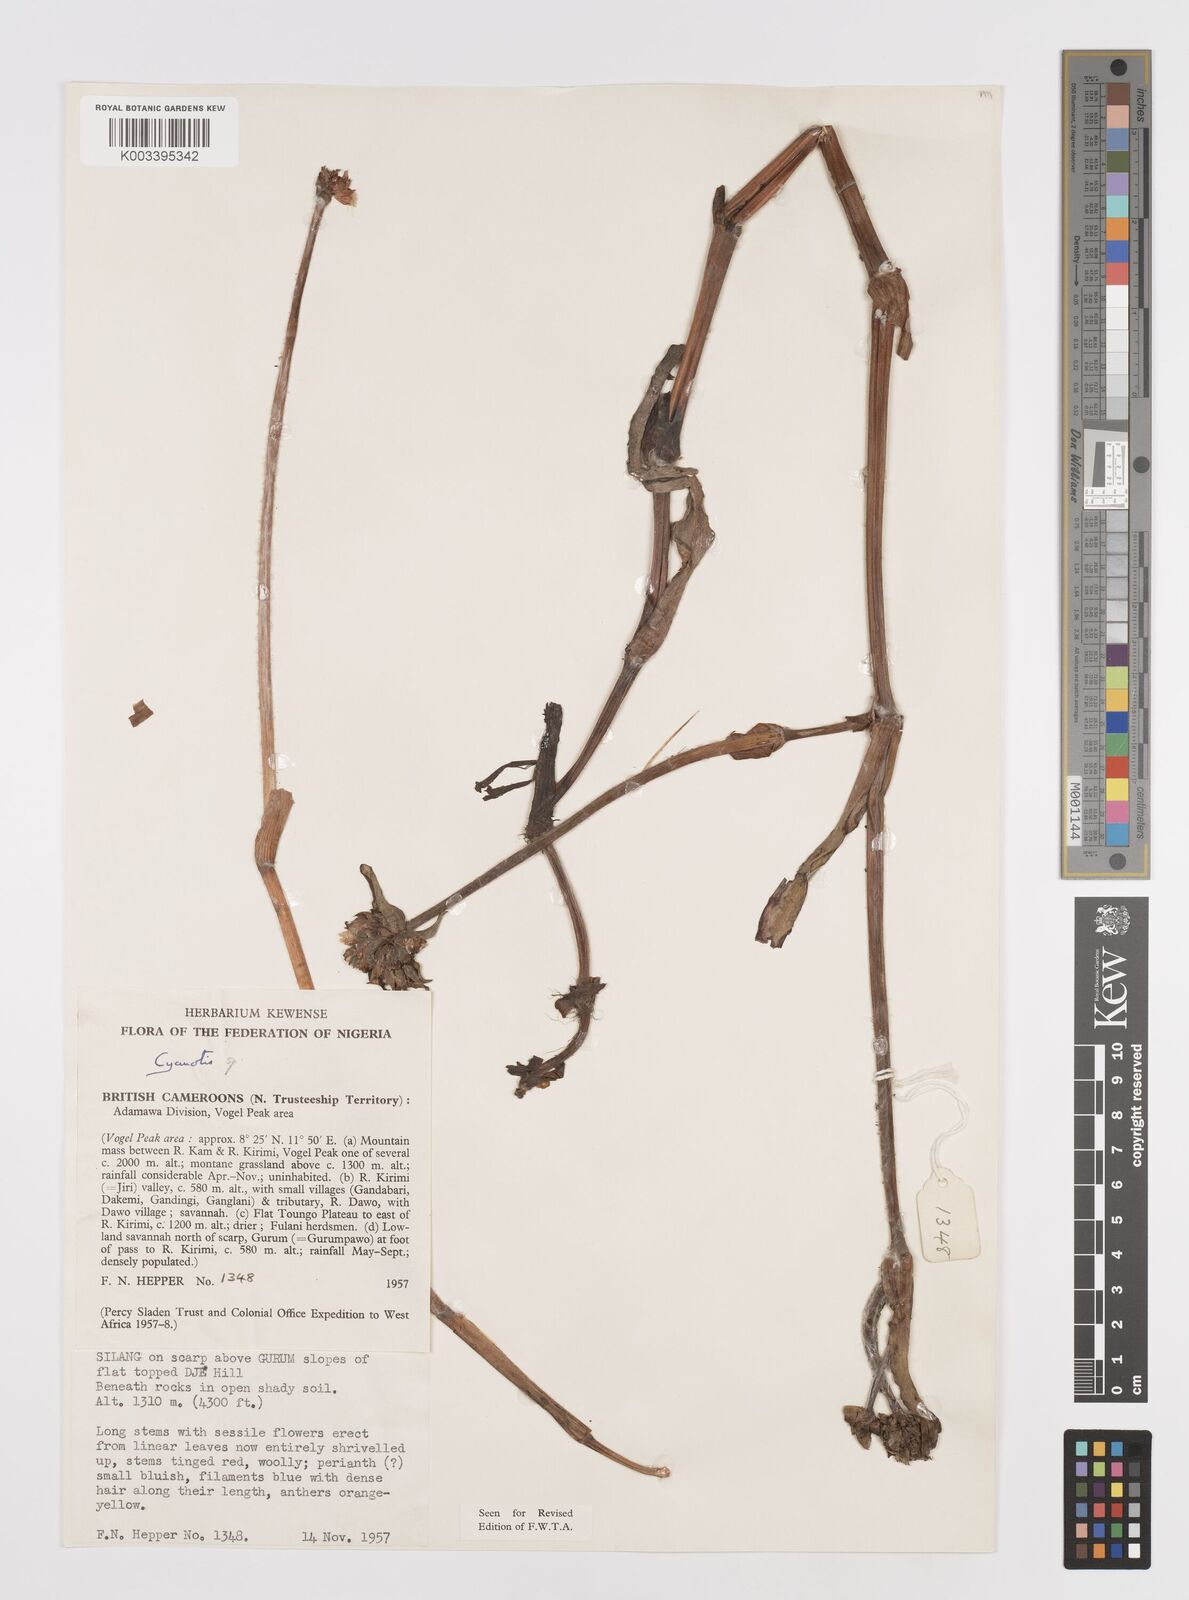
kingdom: Plantae
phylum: Tracheophyta
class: Liliopsida
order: Commelinales
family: Commelinaceae
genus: Cyanotis
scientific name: Cyanotis
